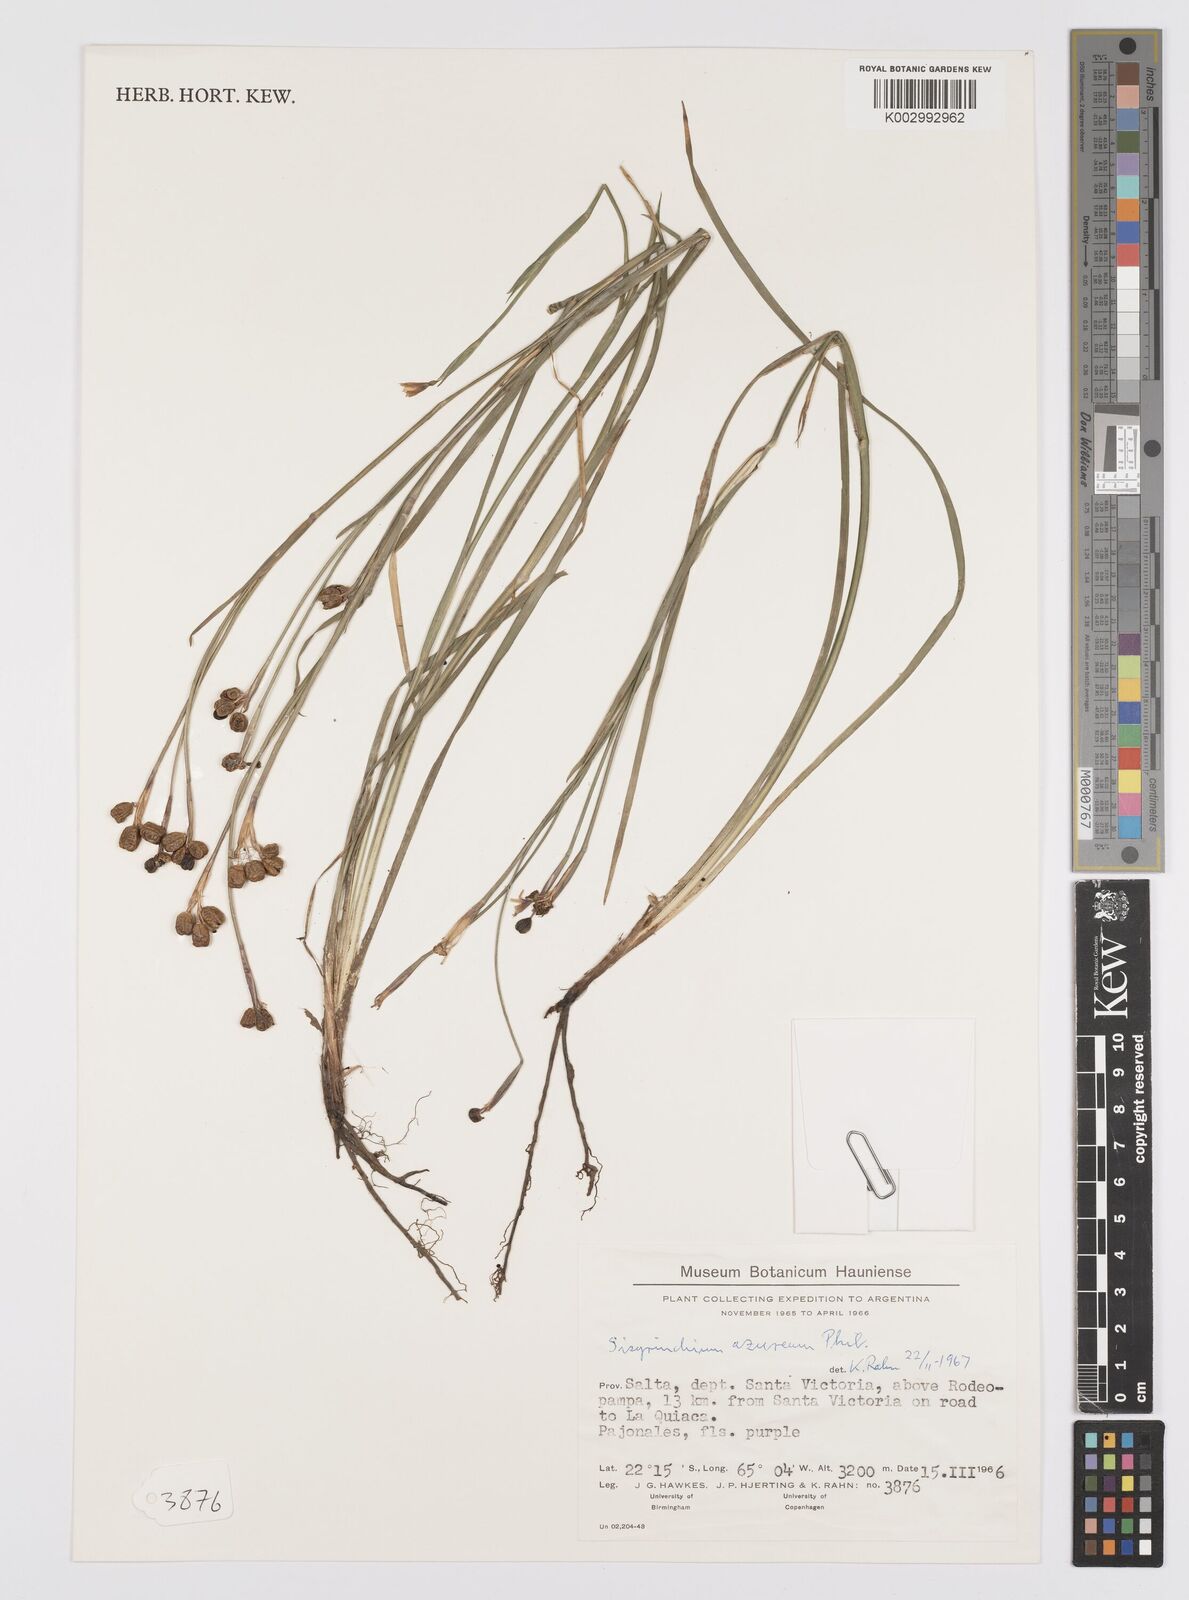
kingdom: Plantae
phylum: Tracheophyta
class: Liliopsida
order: Asparagales
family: Iridaceae
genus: Sisyrinchium
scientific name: Sisyrinchium azureum
